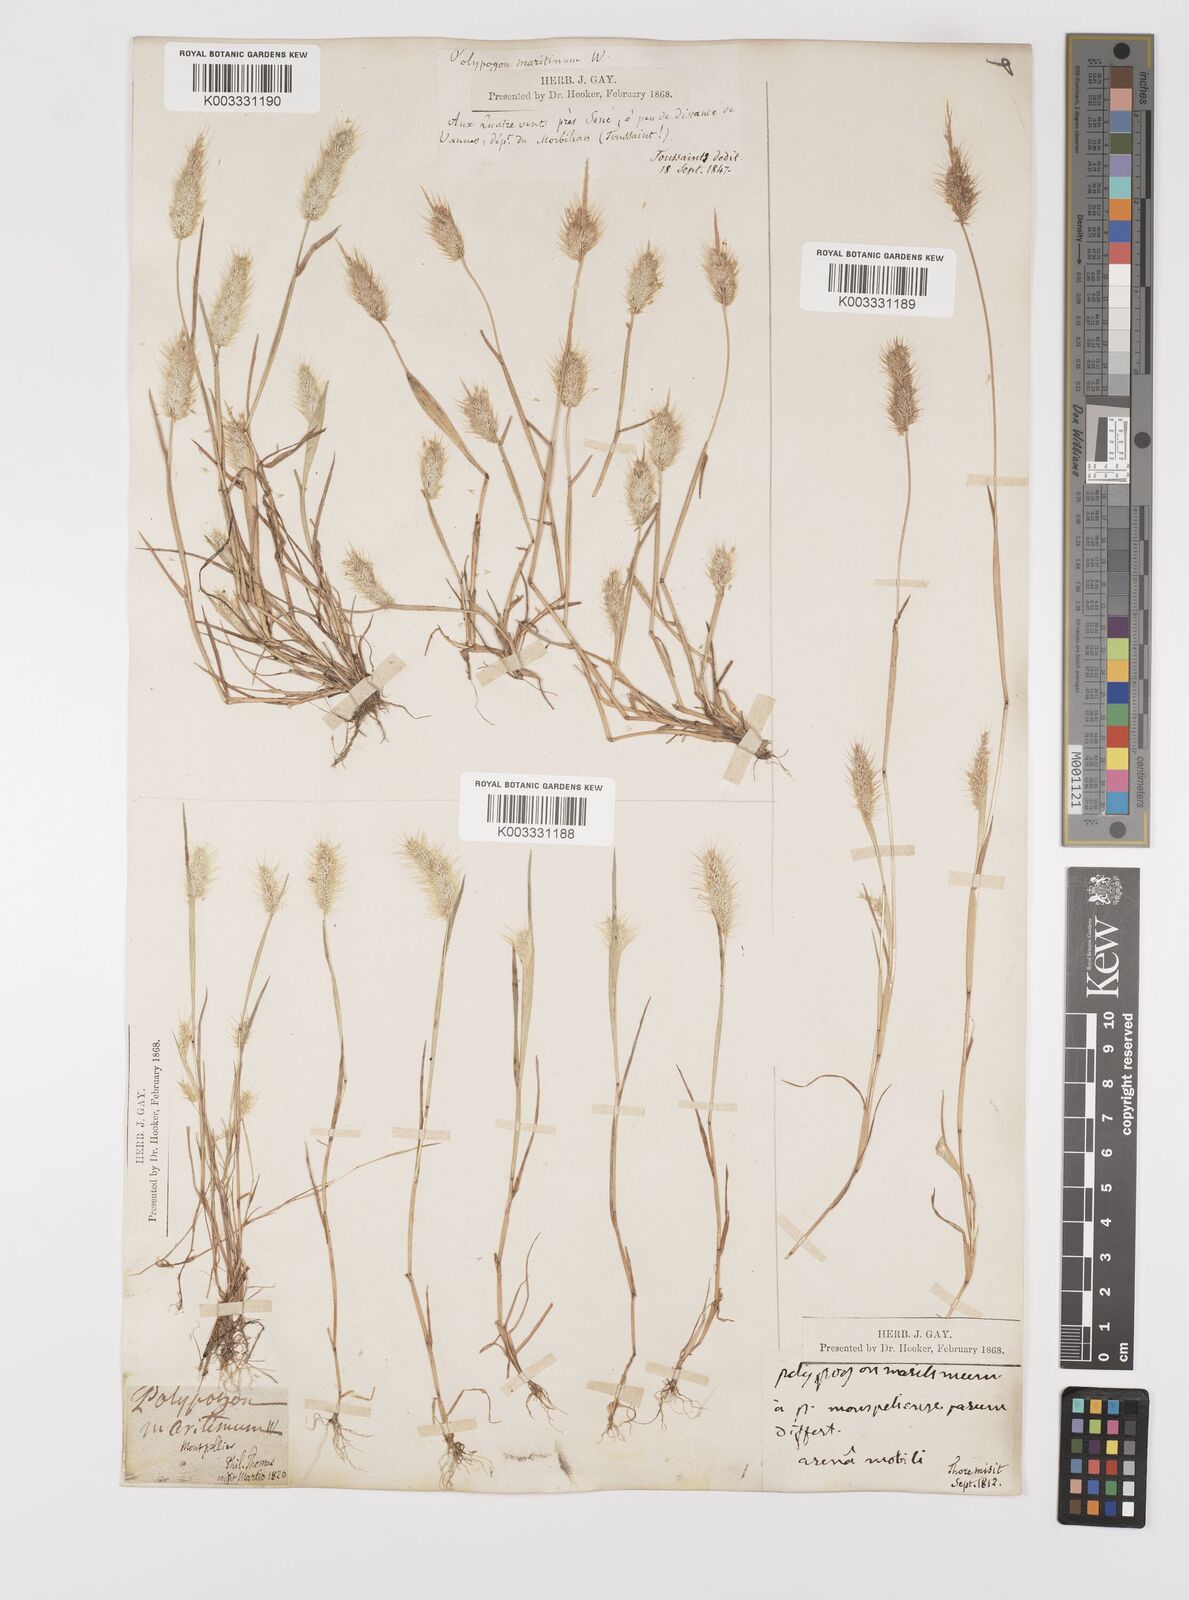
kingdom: Plantae
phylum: Tracheophyta
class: Liliopsida
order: Poales
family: Poaceae
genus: Polypogon
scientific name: Polypogon maritimus
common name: Mediterranean rabbitsfoot grass
